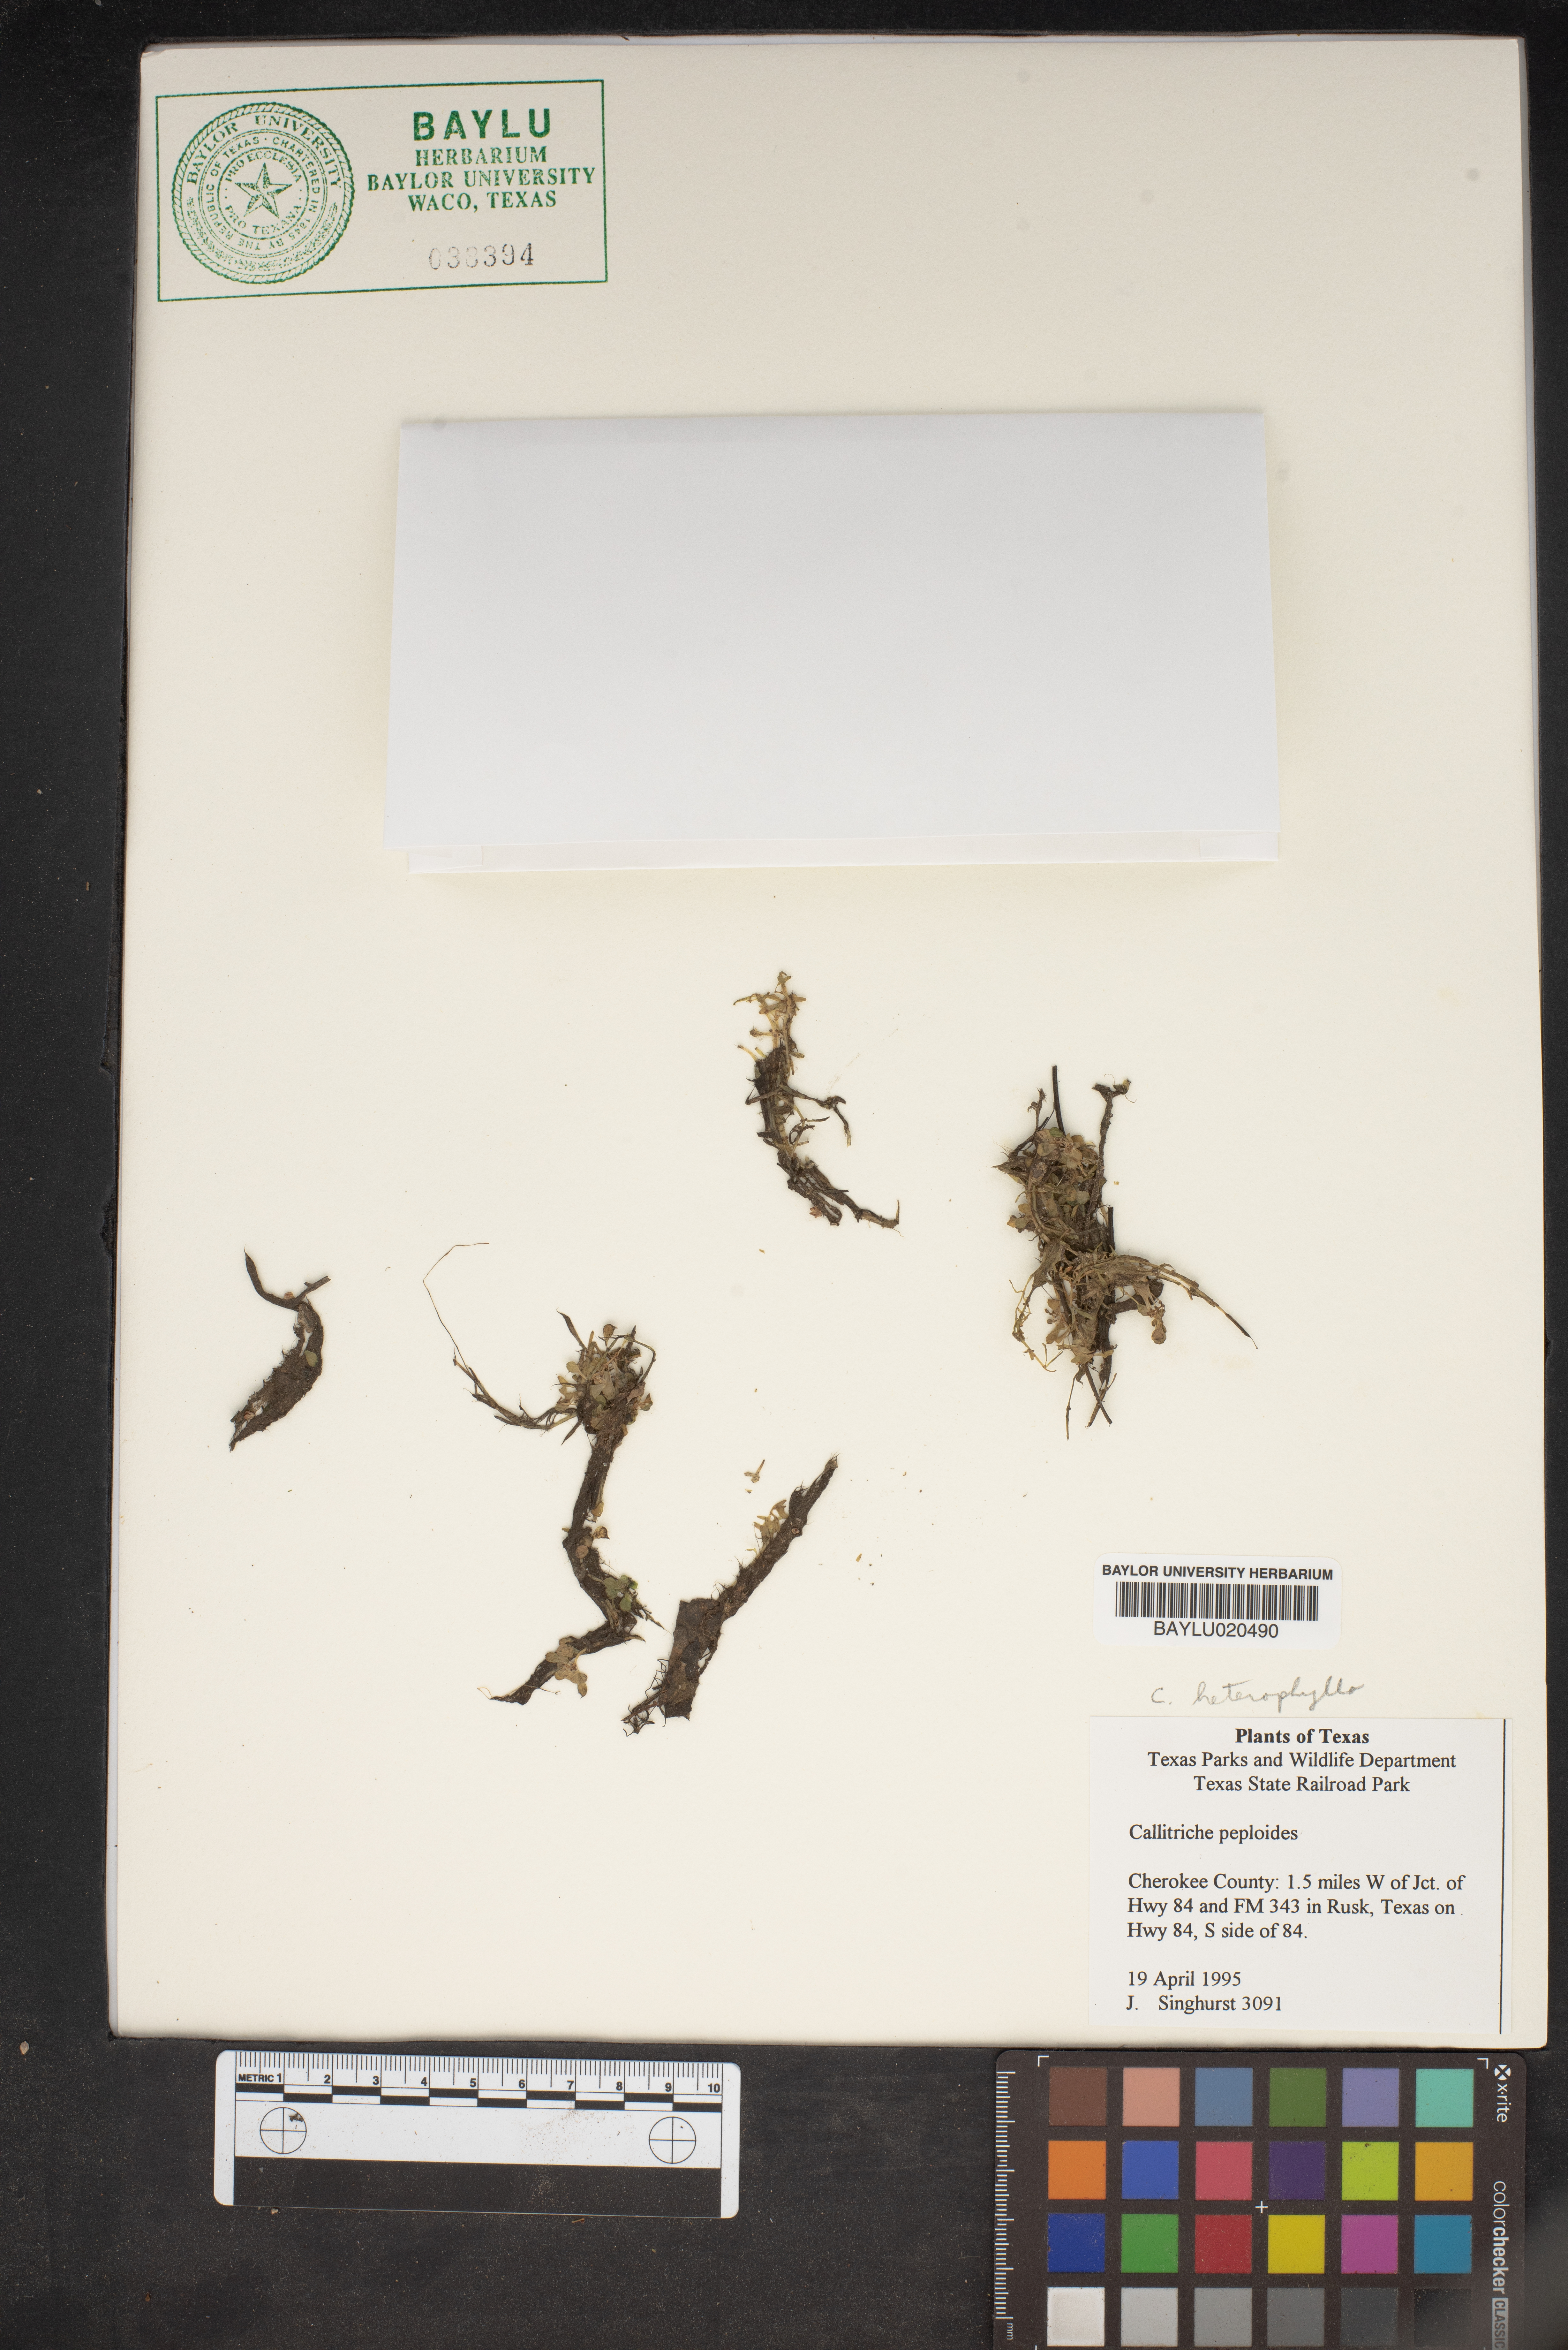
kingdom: Plantae
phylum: Tracheophyta
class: Magnoliopsida
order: Lamiales
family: Plantaginaceae
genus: Callitriche
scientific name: Callitriche peploides
